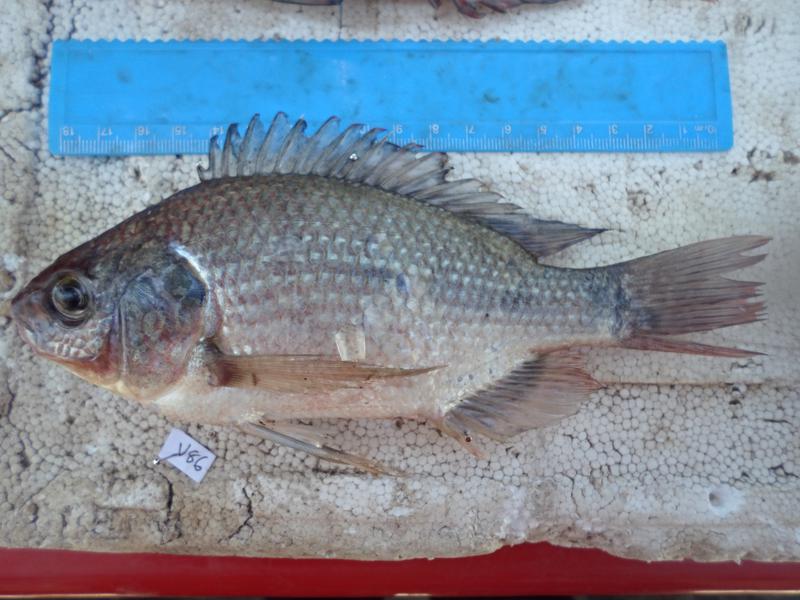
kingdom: Animalia
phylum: Chordata
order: Perciformes
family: Cichlidae
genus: Oreochromis
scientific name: Oreochromis esculentus
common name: Carp
